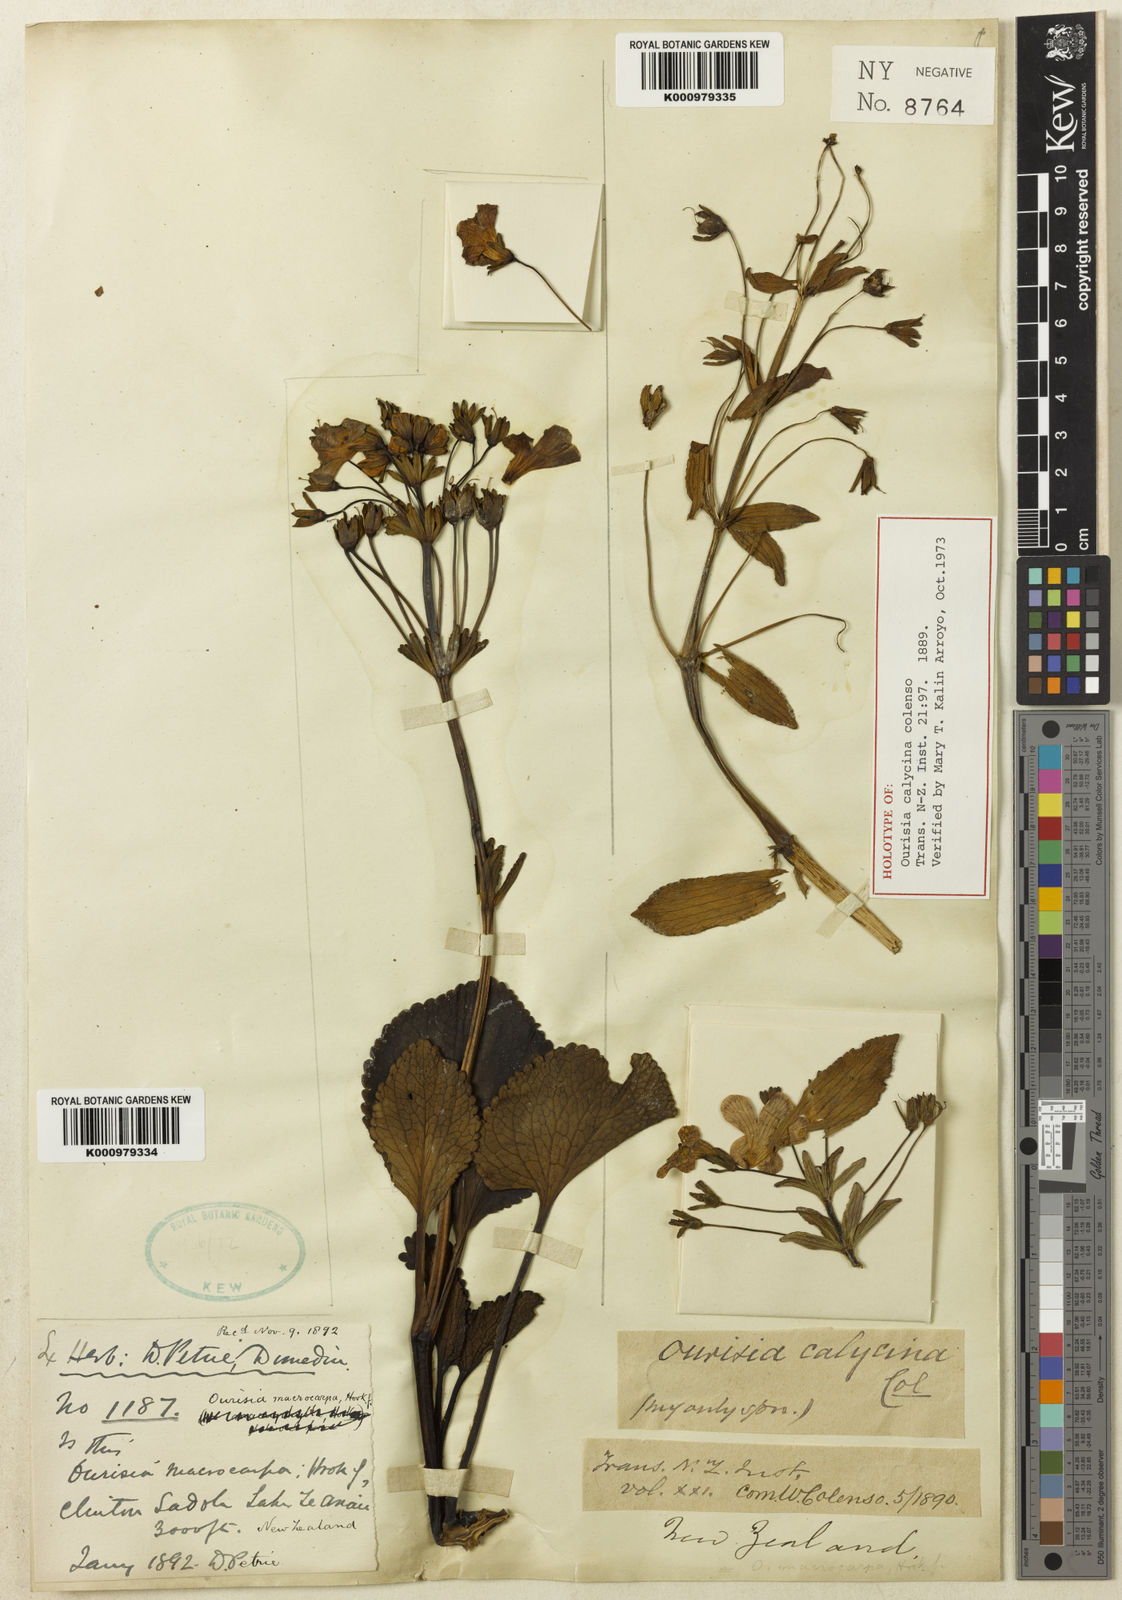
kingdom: Plantae
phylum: Tracheophyta
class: Magnoliopsida
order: Lamiales
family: Plantaginaceae
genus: Ourisia
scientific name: Ourisia calycina
